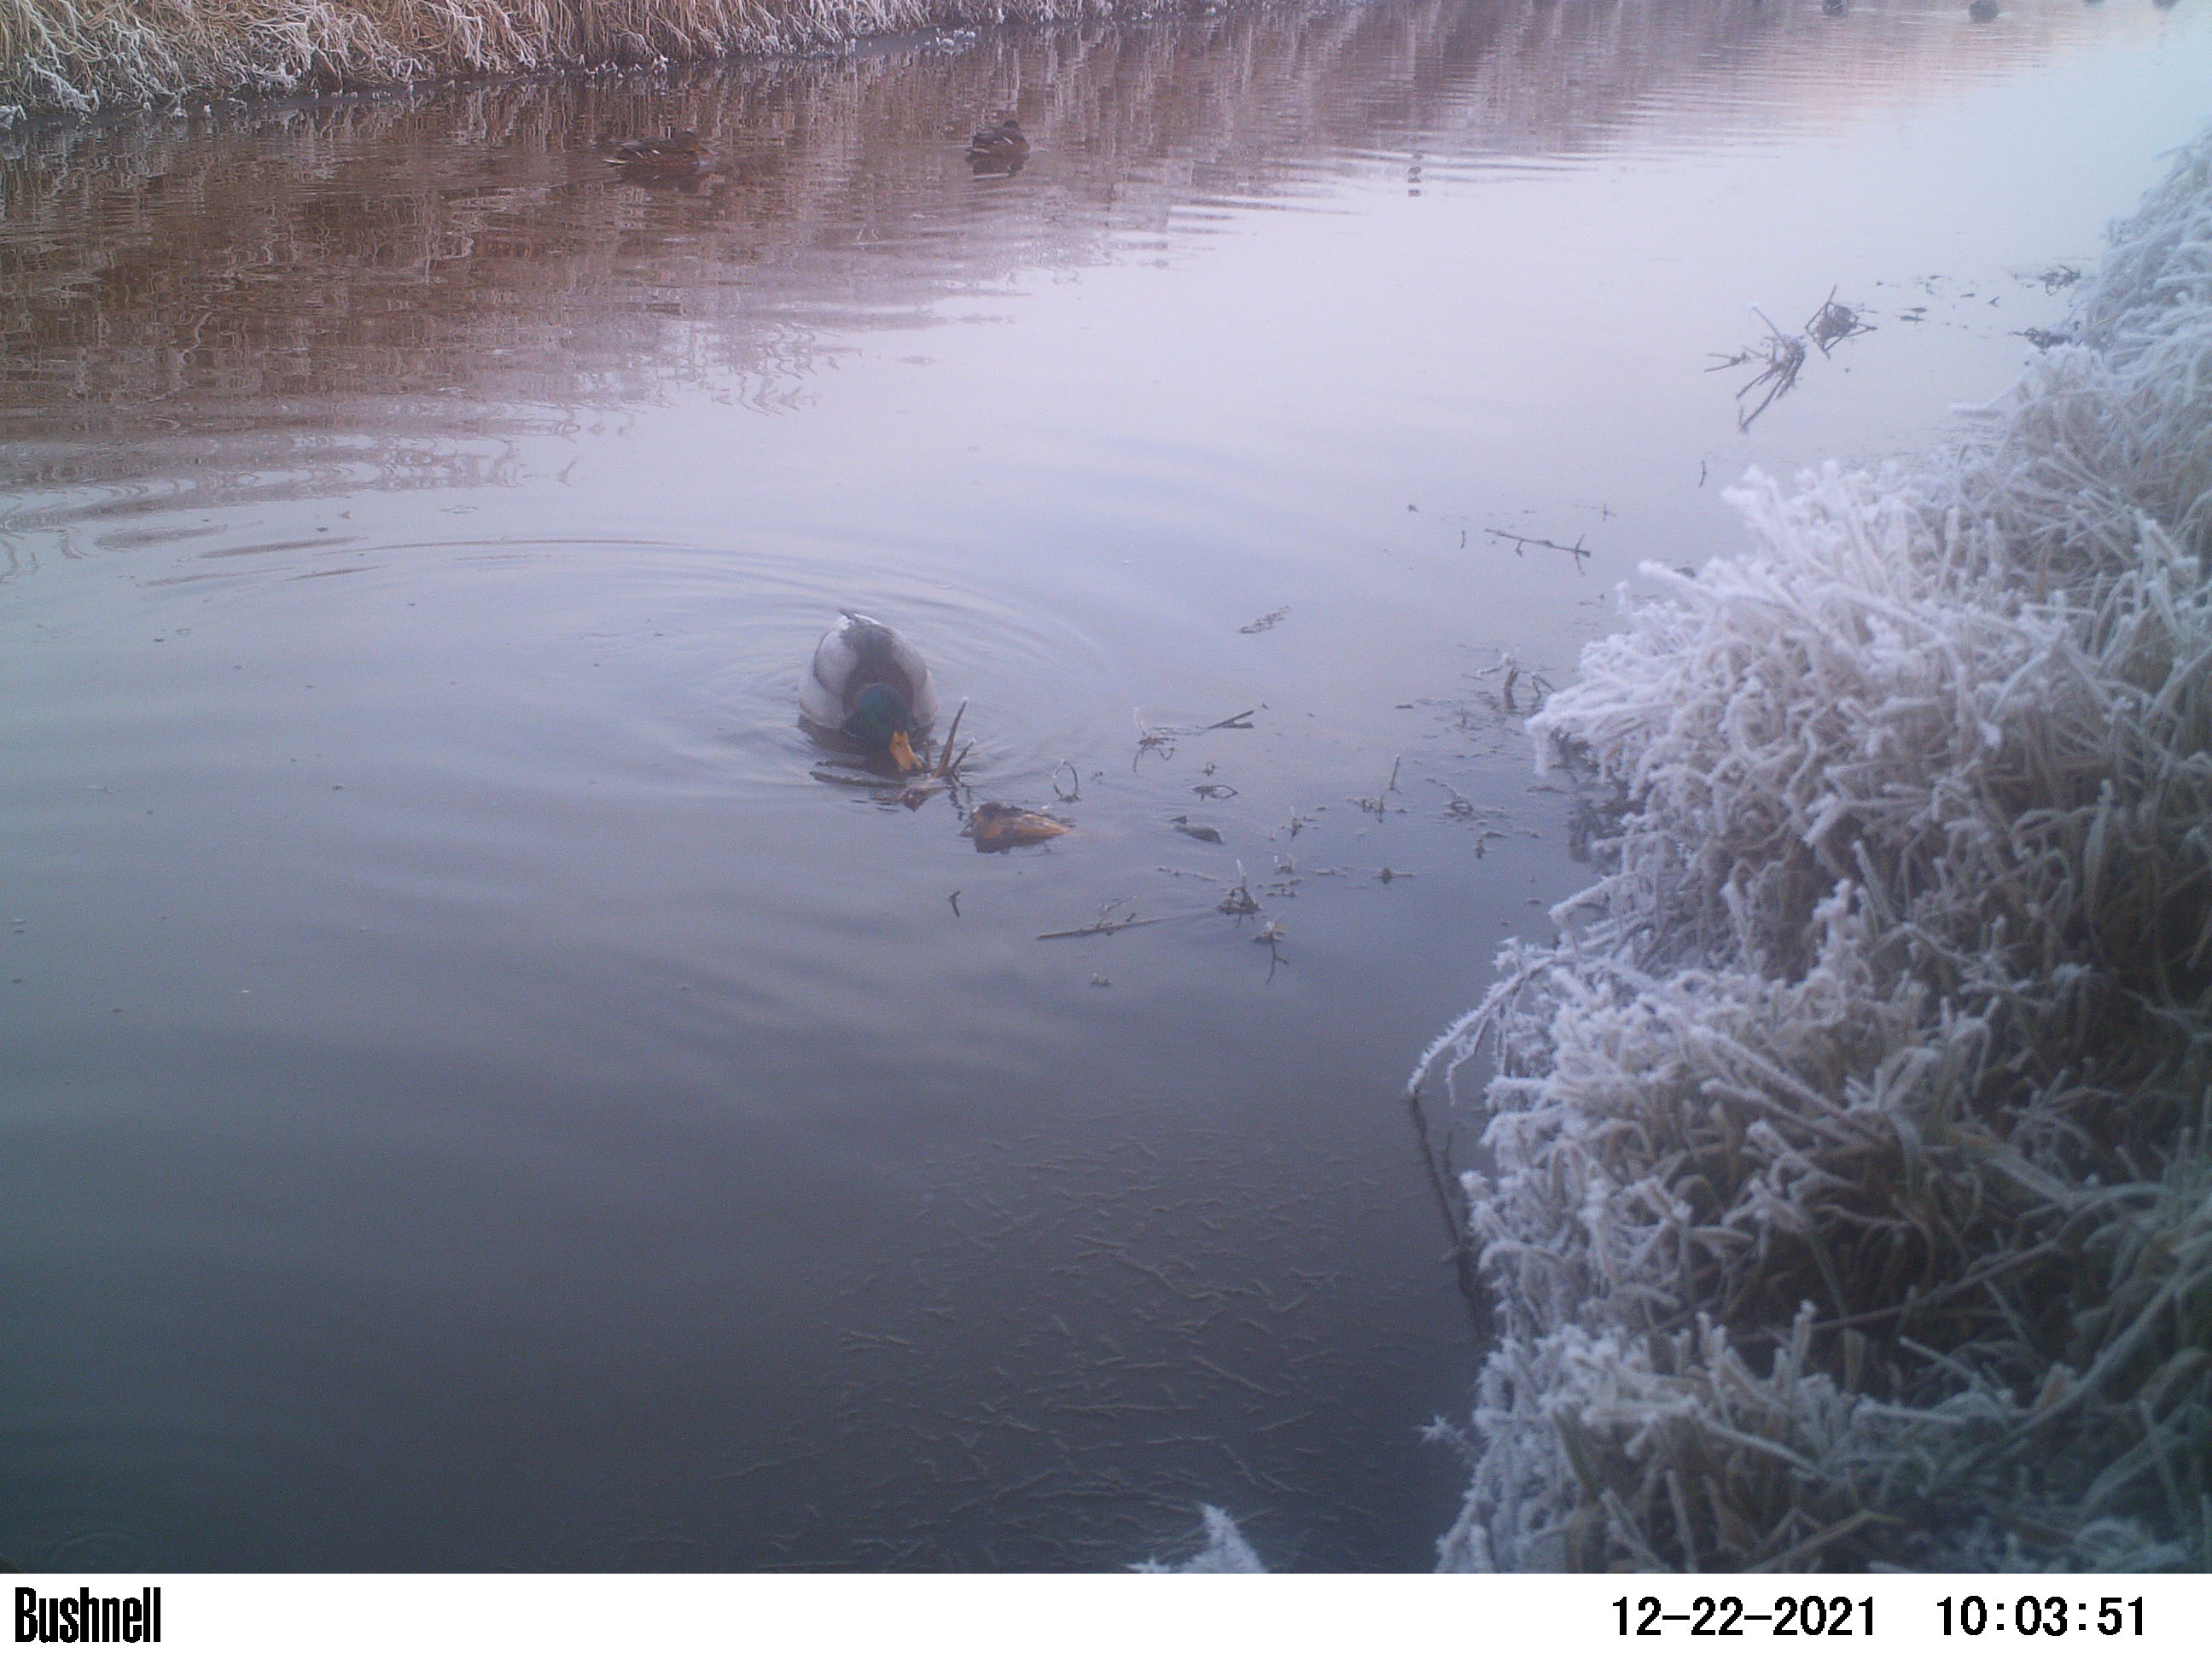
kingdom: Animalia
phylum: Chordata
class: Aves
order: Anseriformes
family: Anatidae
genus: Anas
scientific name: Anas
